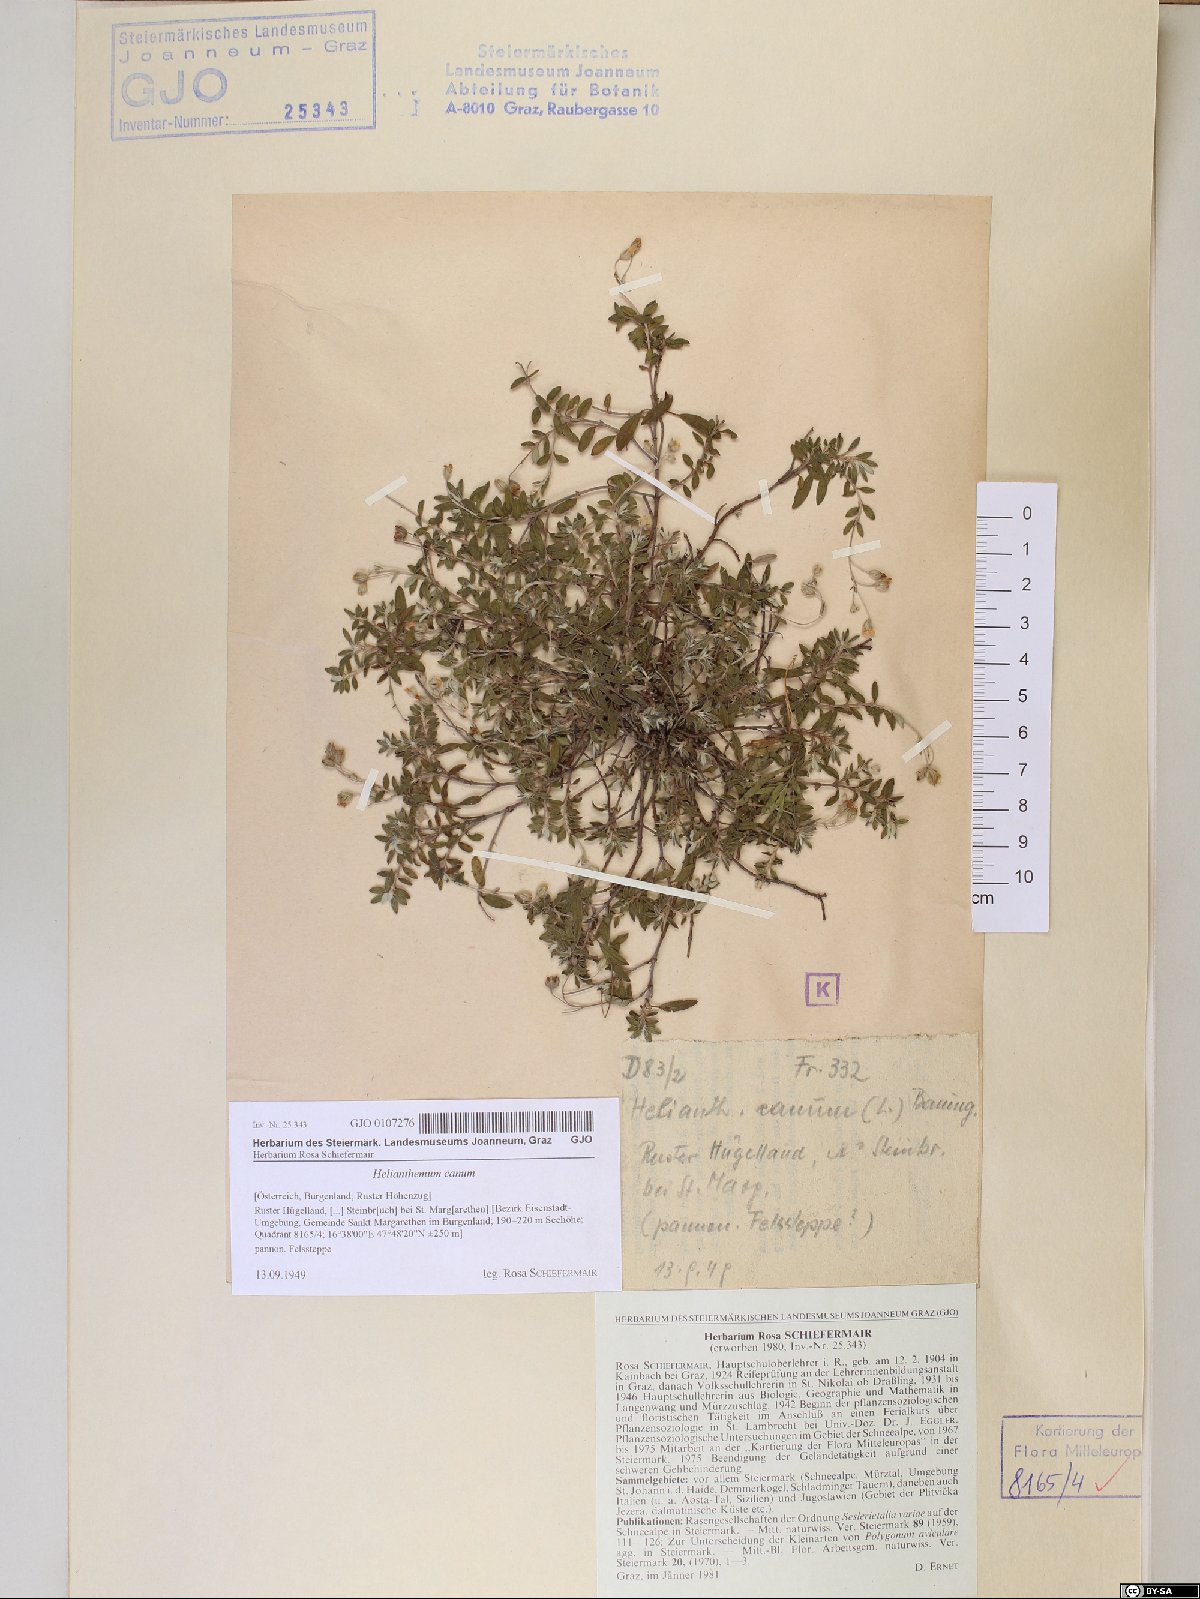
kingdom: Plantae
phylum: Tracheophyta
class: Magnoliopsida
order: Malvales
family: Cistaceae
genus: Helianthemum
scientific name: Helianthemum canum
